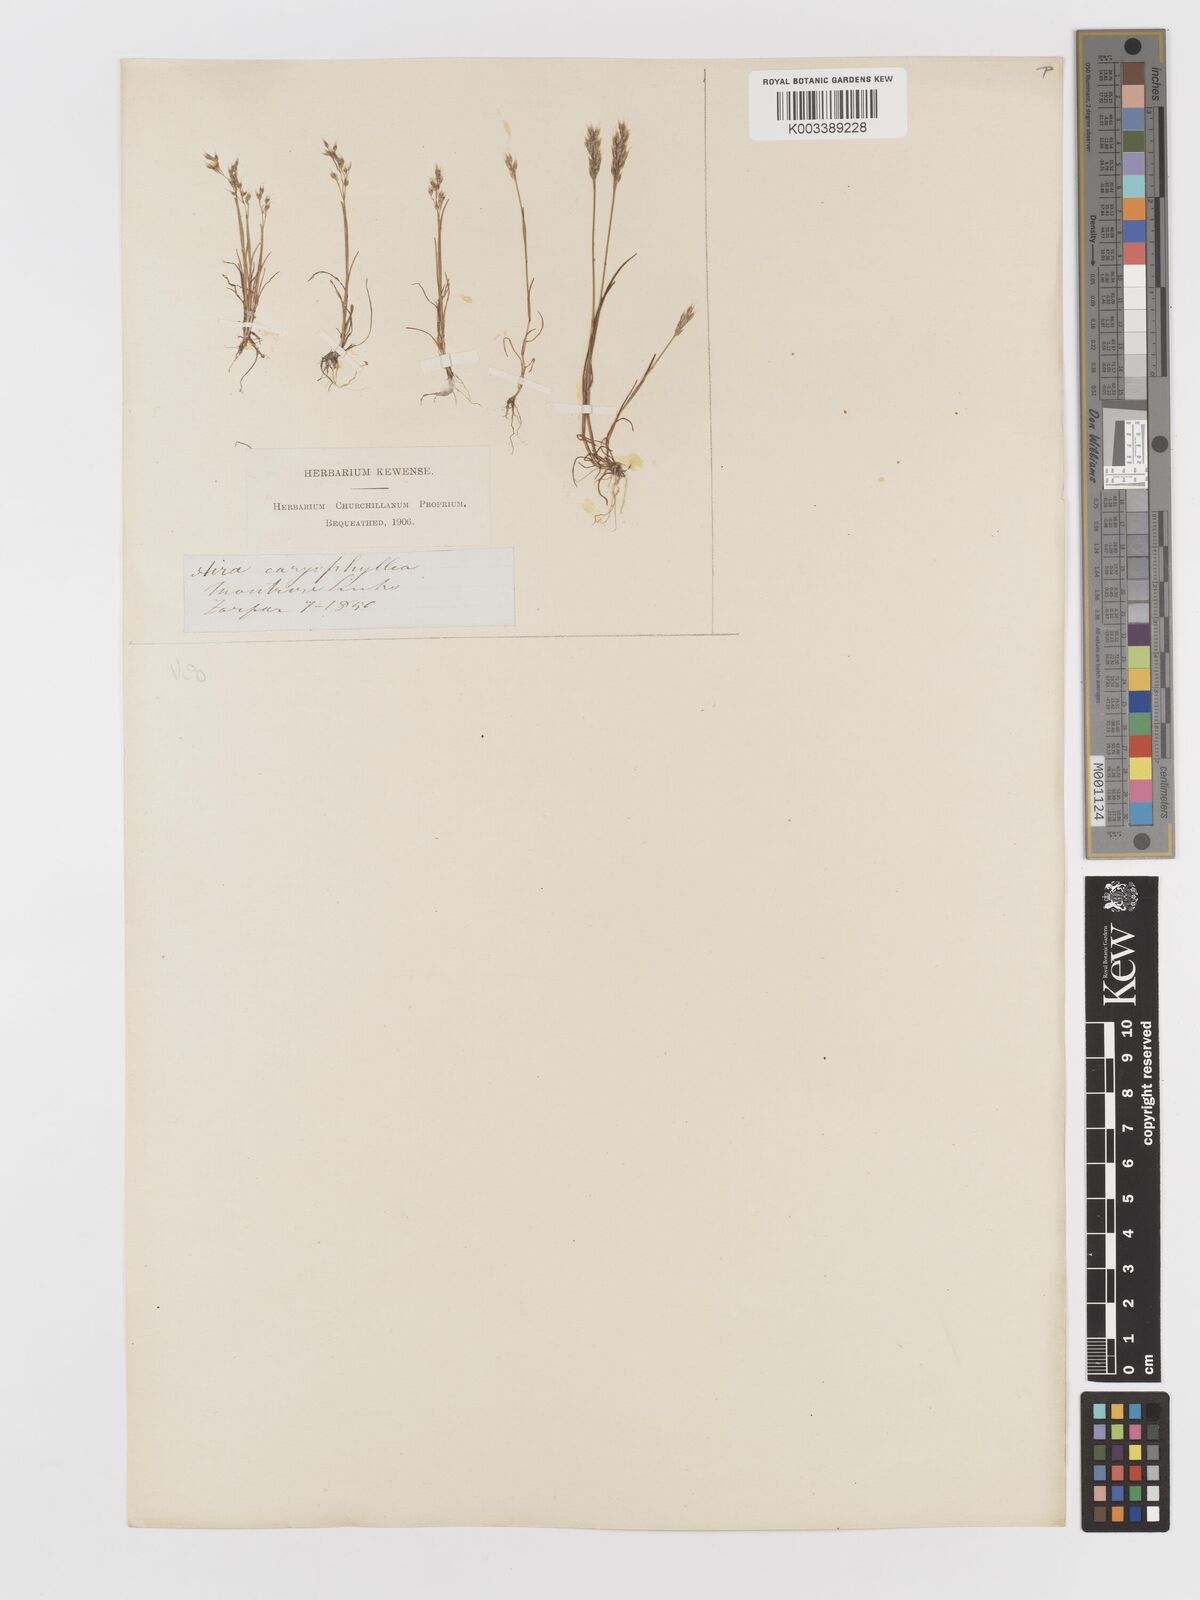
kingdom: Plantae
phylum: Tracheophyta
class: Liliopsida
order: Poales
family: Poaceae
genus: Aira
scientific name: Aira praecox
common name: Early hair-grass
